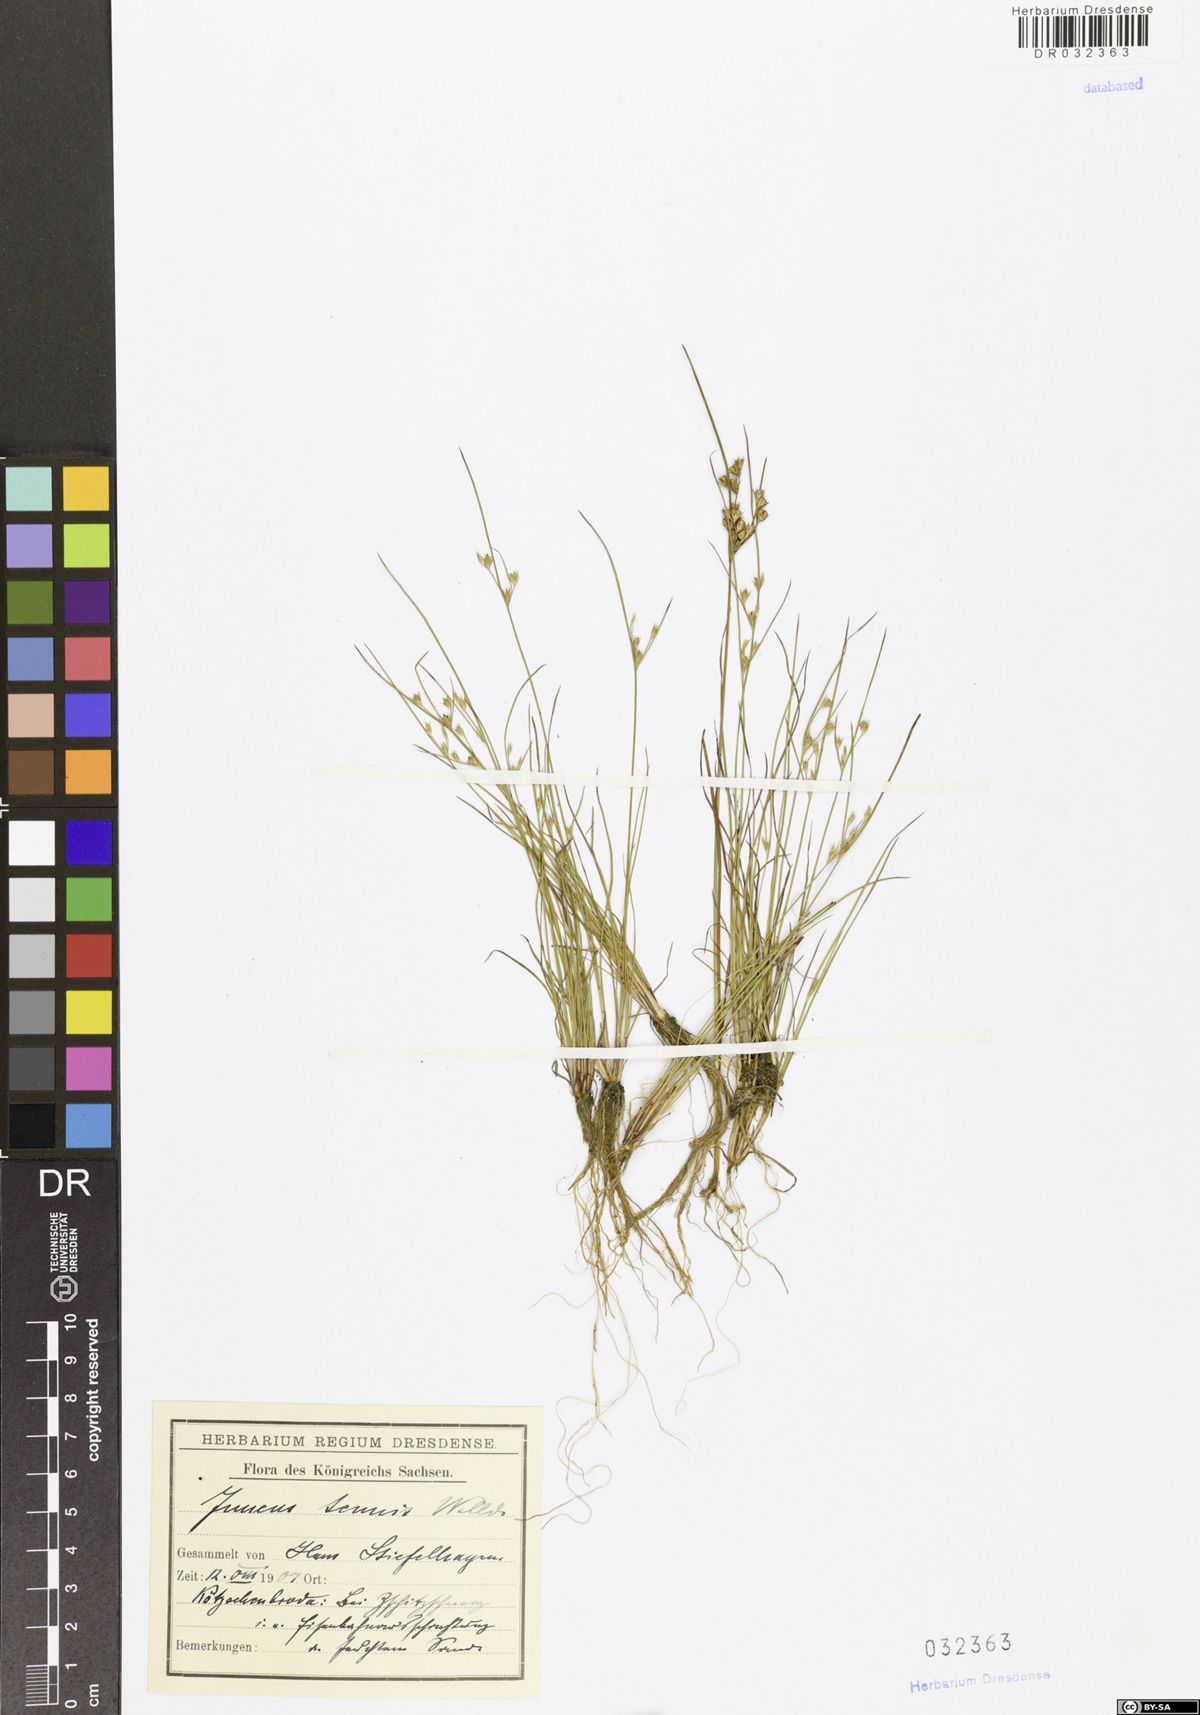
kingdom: Plantae
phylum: Tracheophyta
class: Liliopsida
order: Poales
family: Juncaceae
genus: Juncus
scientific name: Juncus tenuis
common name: Slender rush
